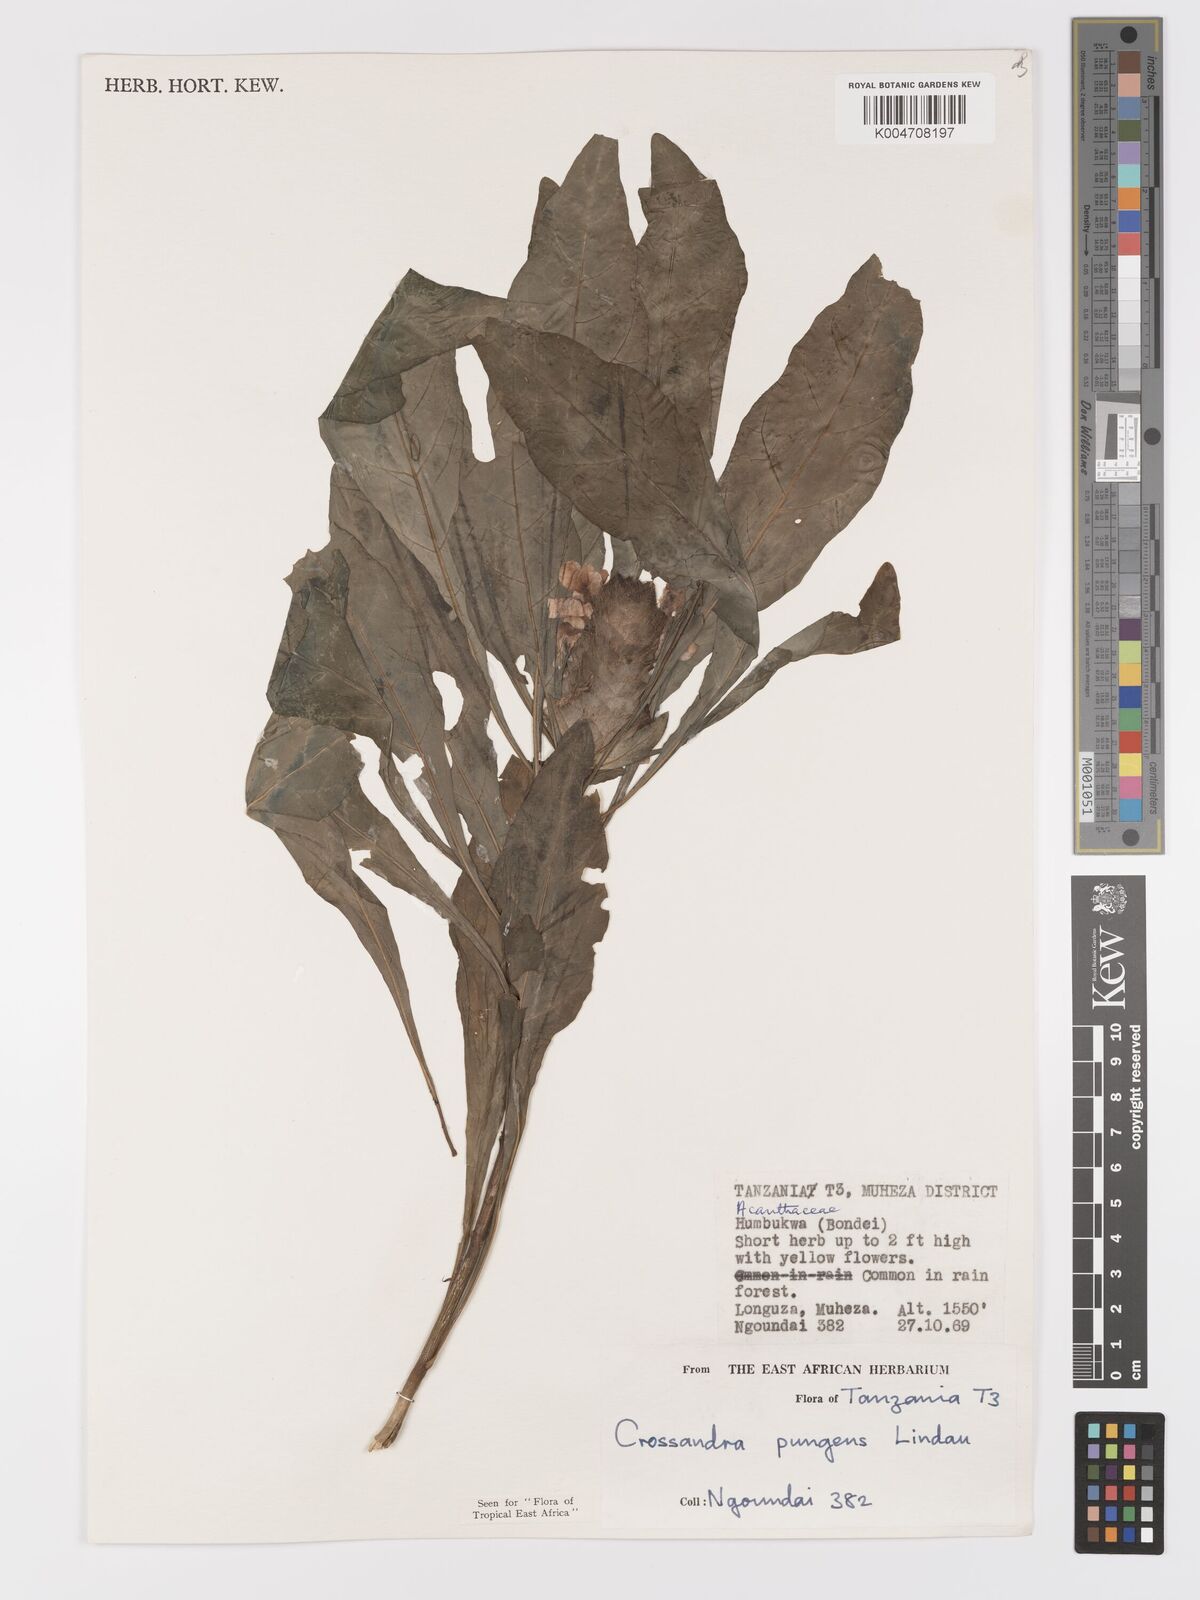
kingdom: Plantae
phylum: Tracheophyta
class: Magnoliopsida
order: Lamiales
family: Acanthaceae
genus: Crossandra
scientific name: Crossandra pungens
